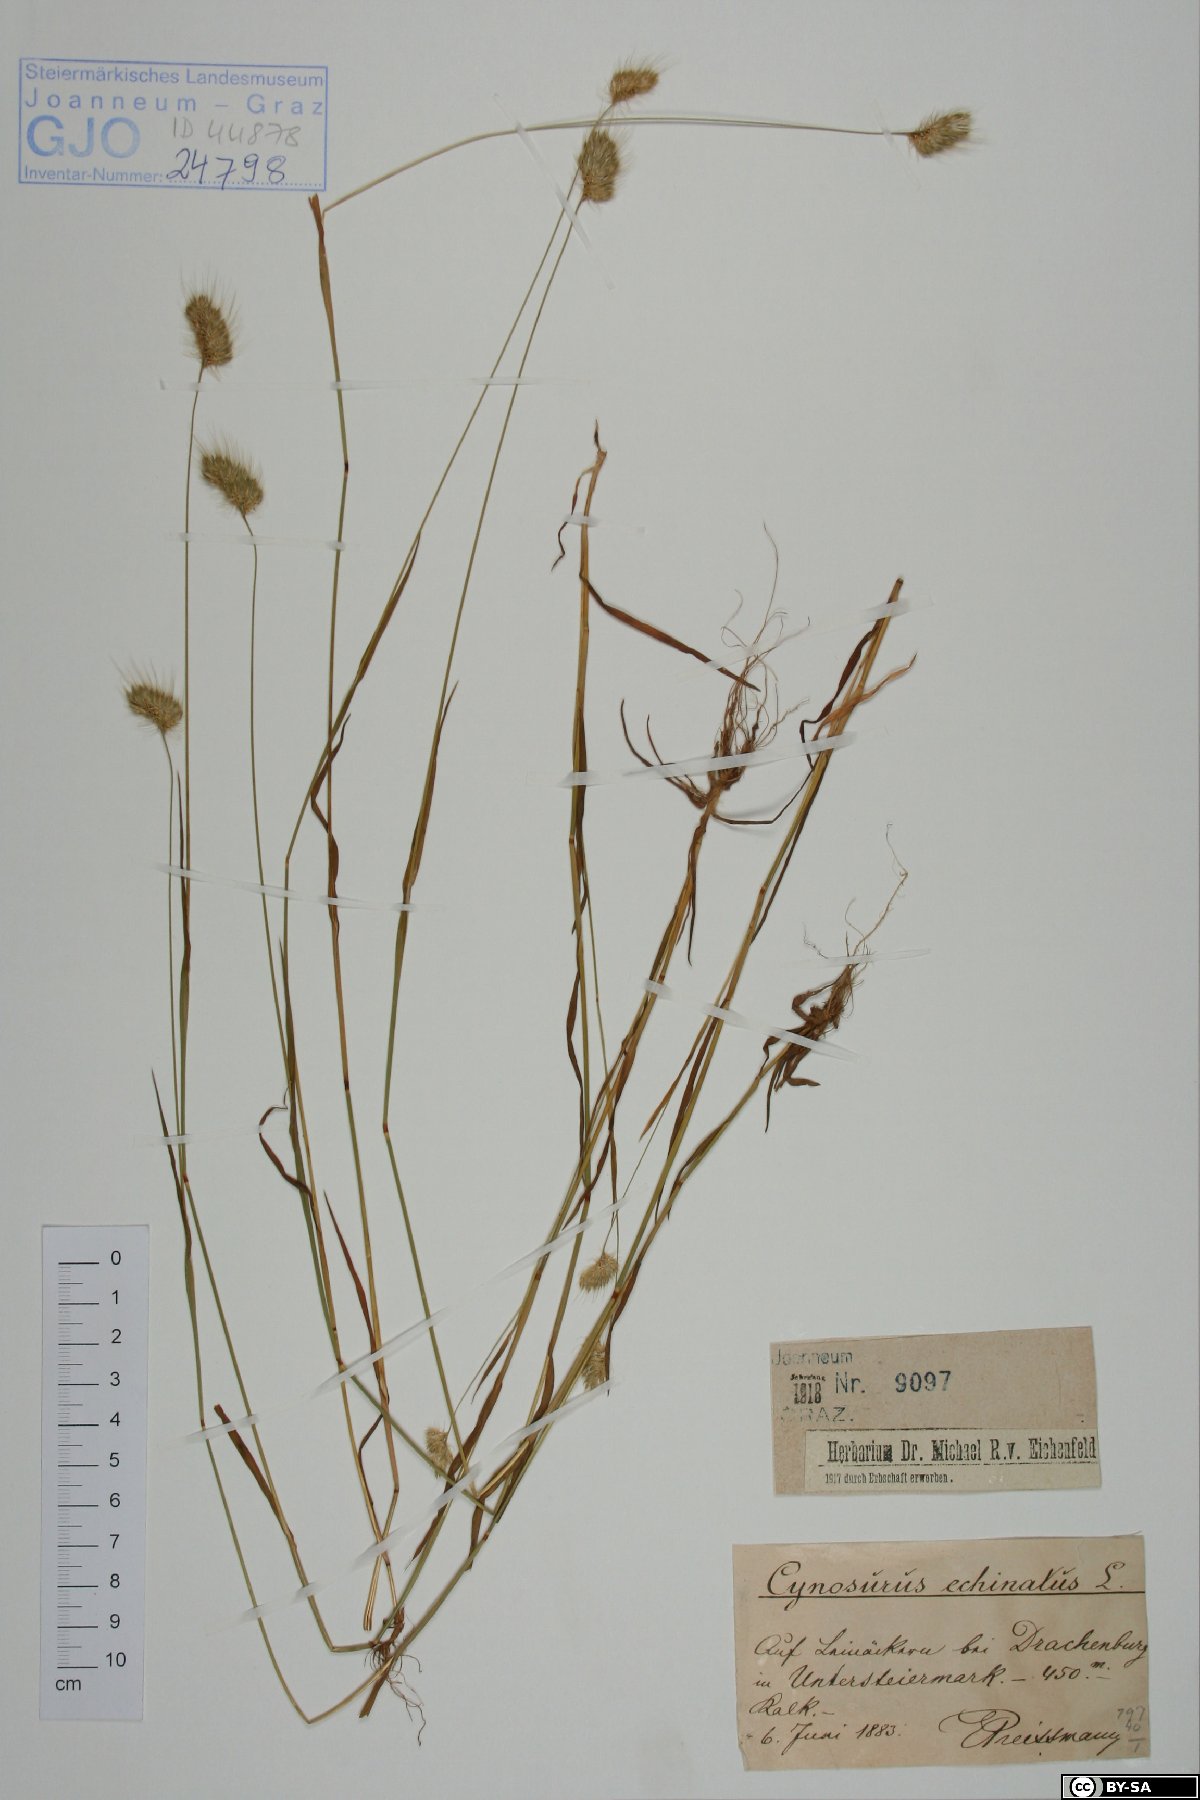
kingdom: Plantae
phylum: Tracheophyta
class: Liliopsida
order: Poales
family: Poaceae
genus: Cynosurus
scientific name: Cynosurus echinatus
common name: Rough dog's-tail
